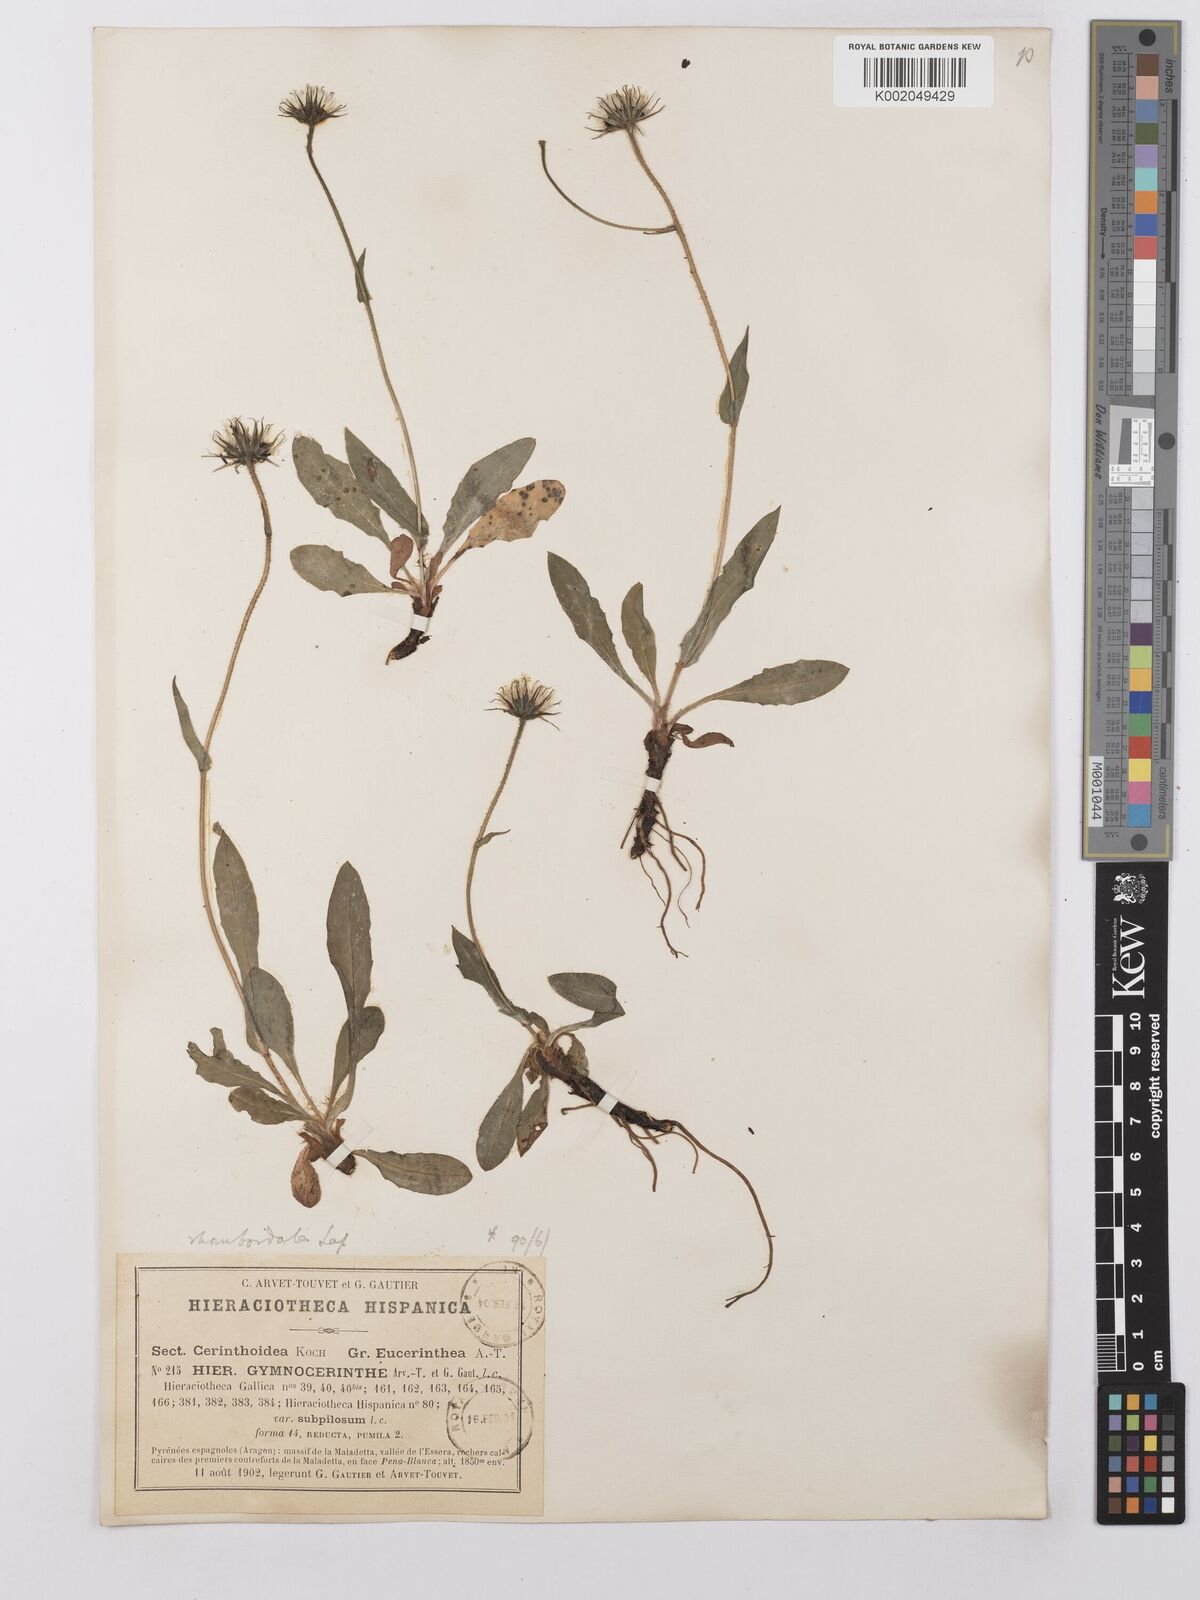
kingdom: Plantae
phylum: Tracheophyta
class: Magnoliopsida
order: Asterales
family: Asteraceae
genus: Hieracium
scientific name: Hieracium cerinthoides
